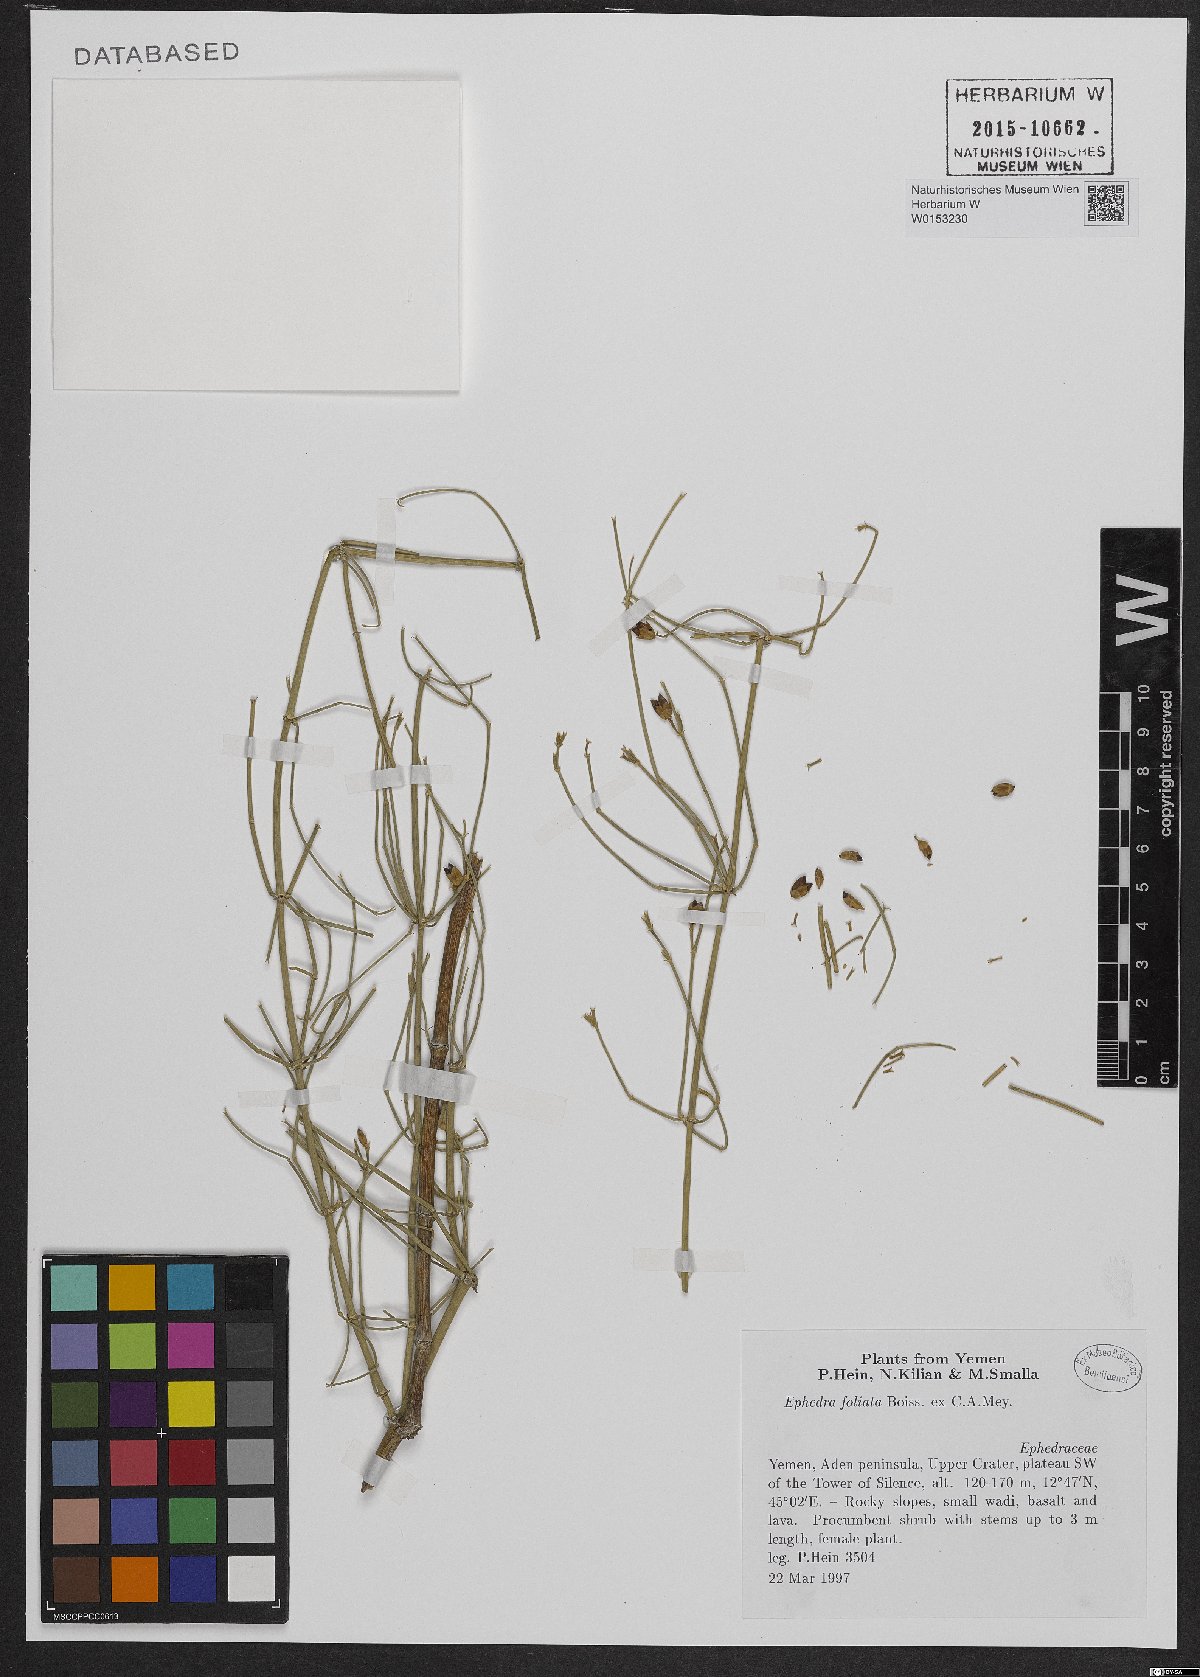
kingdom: Plantae
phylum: Tracheophyta
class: Gnetopsida
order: Ephedrales
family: Ephedraceae
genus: Ephedra
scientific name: Ephedra ciliata
